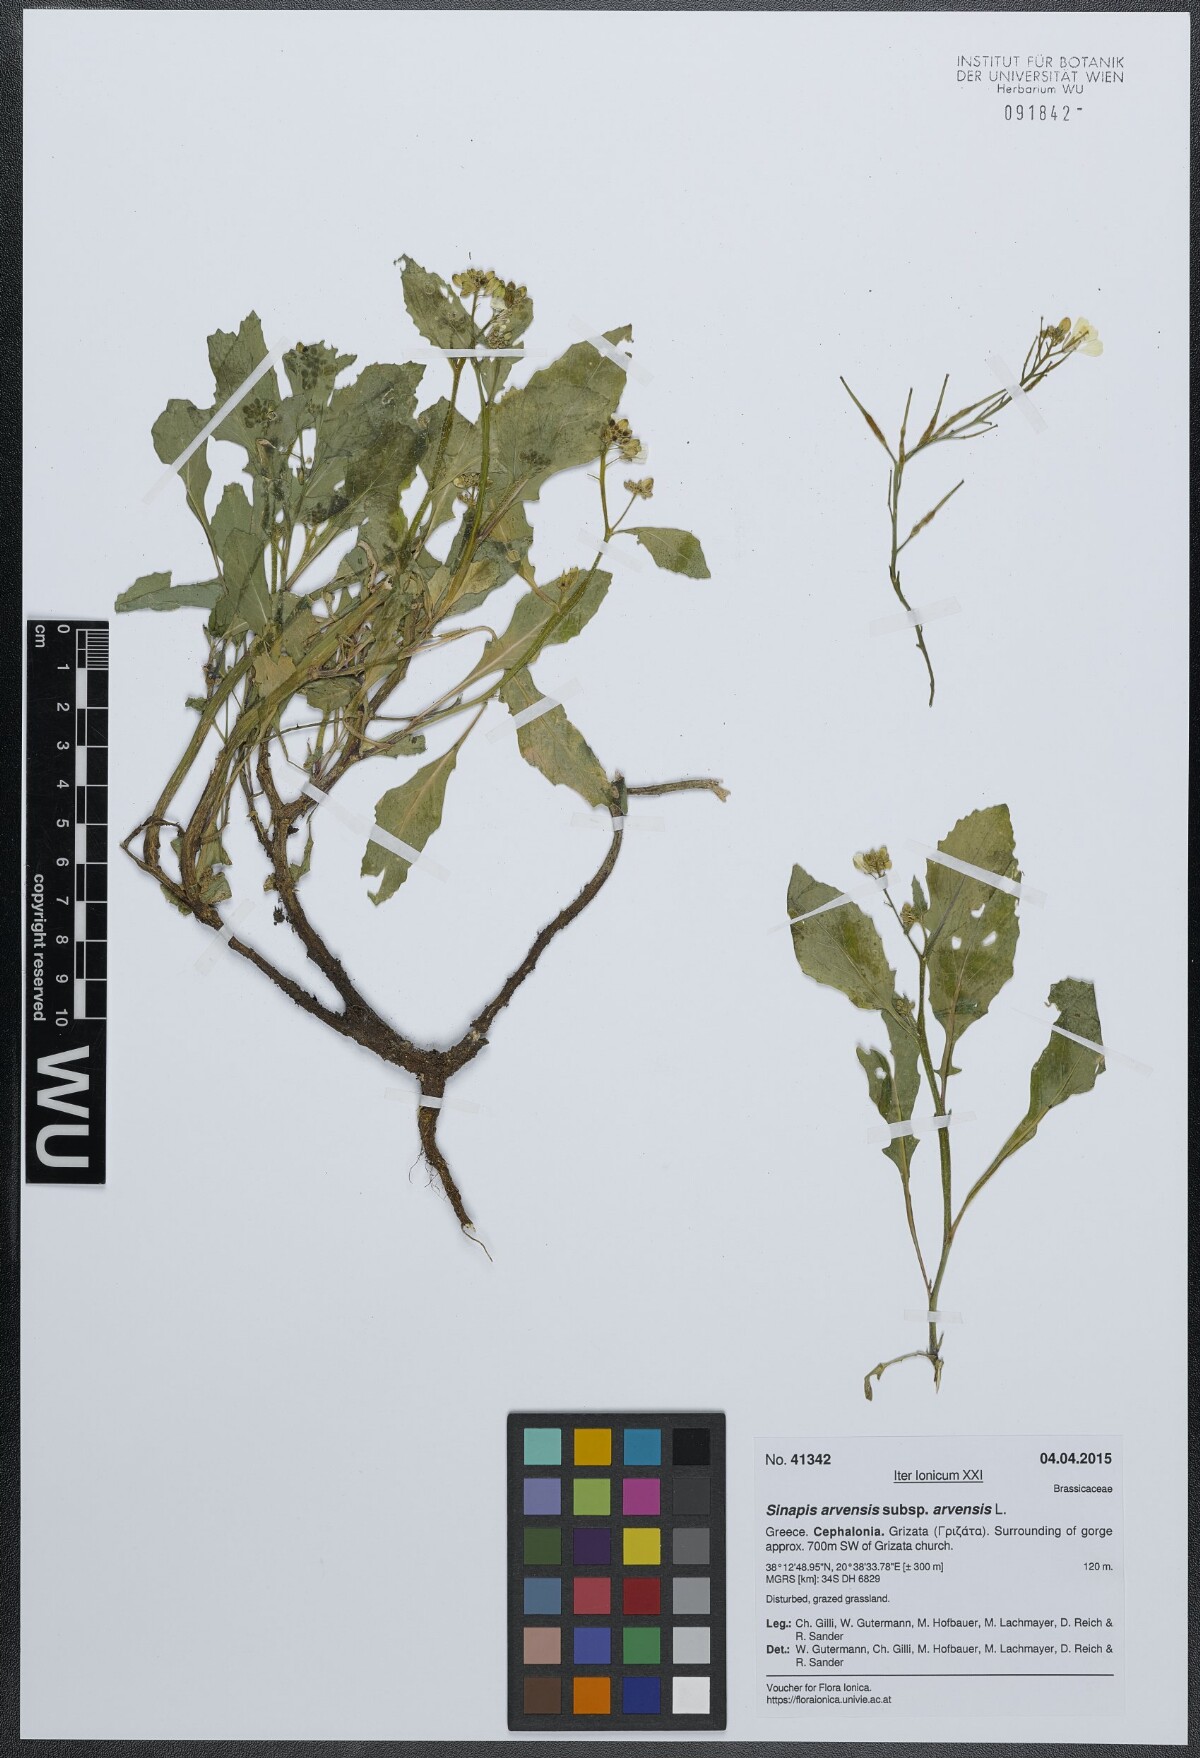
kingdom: Plantae
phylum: Tracheophyta
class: Magnoliopsida
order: Brassicales
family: Brassicaceae
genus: Sinapis
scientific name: Sinapis arvensis
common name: Charlock
